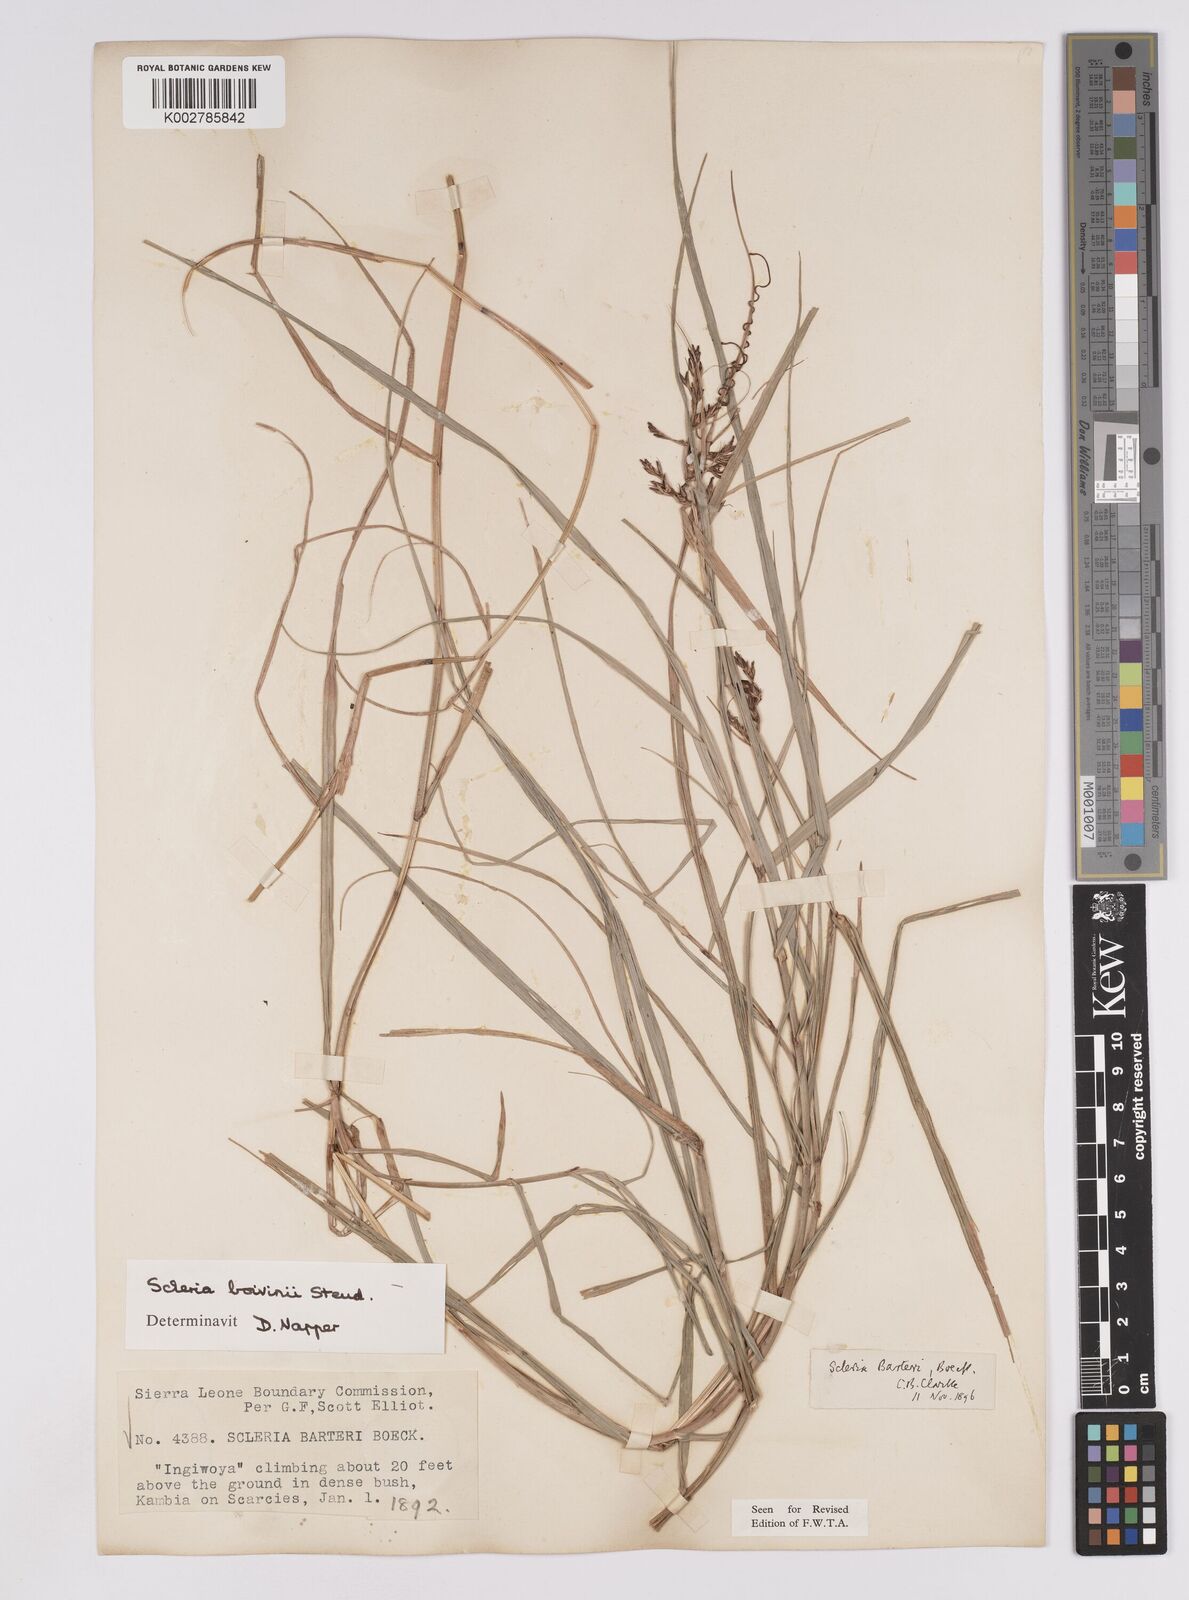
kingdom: Plantae
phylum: Tracheophyta
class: Liliopsida
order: Poales
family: Cyperaceae
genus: Scleria
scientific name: Scleria boivinii
